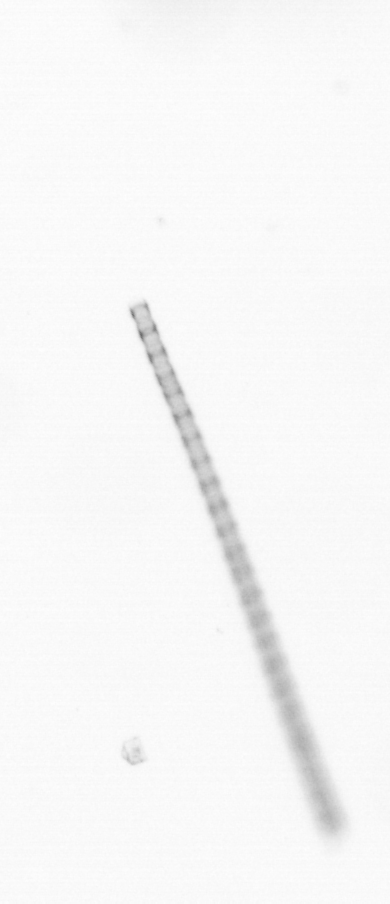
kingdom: Chromista
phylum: Ochrophyta
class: Bacillariophyceae
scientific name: Bacillariophyceae
